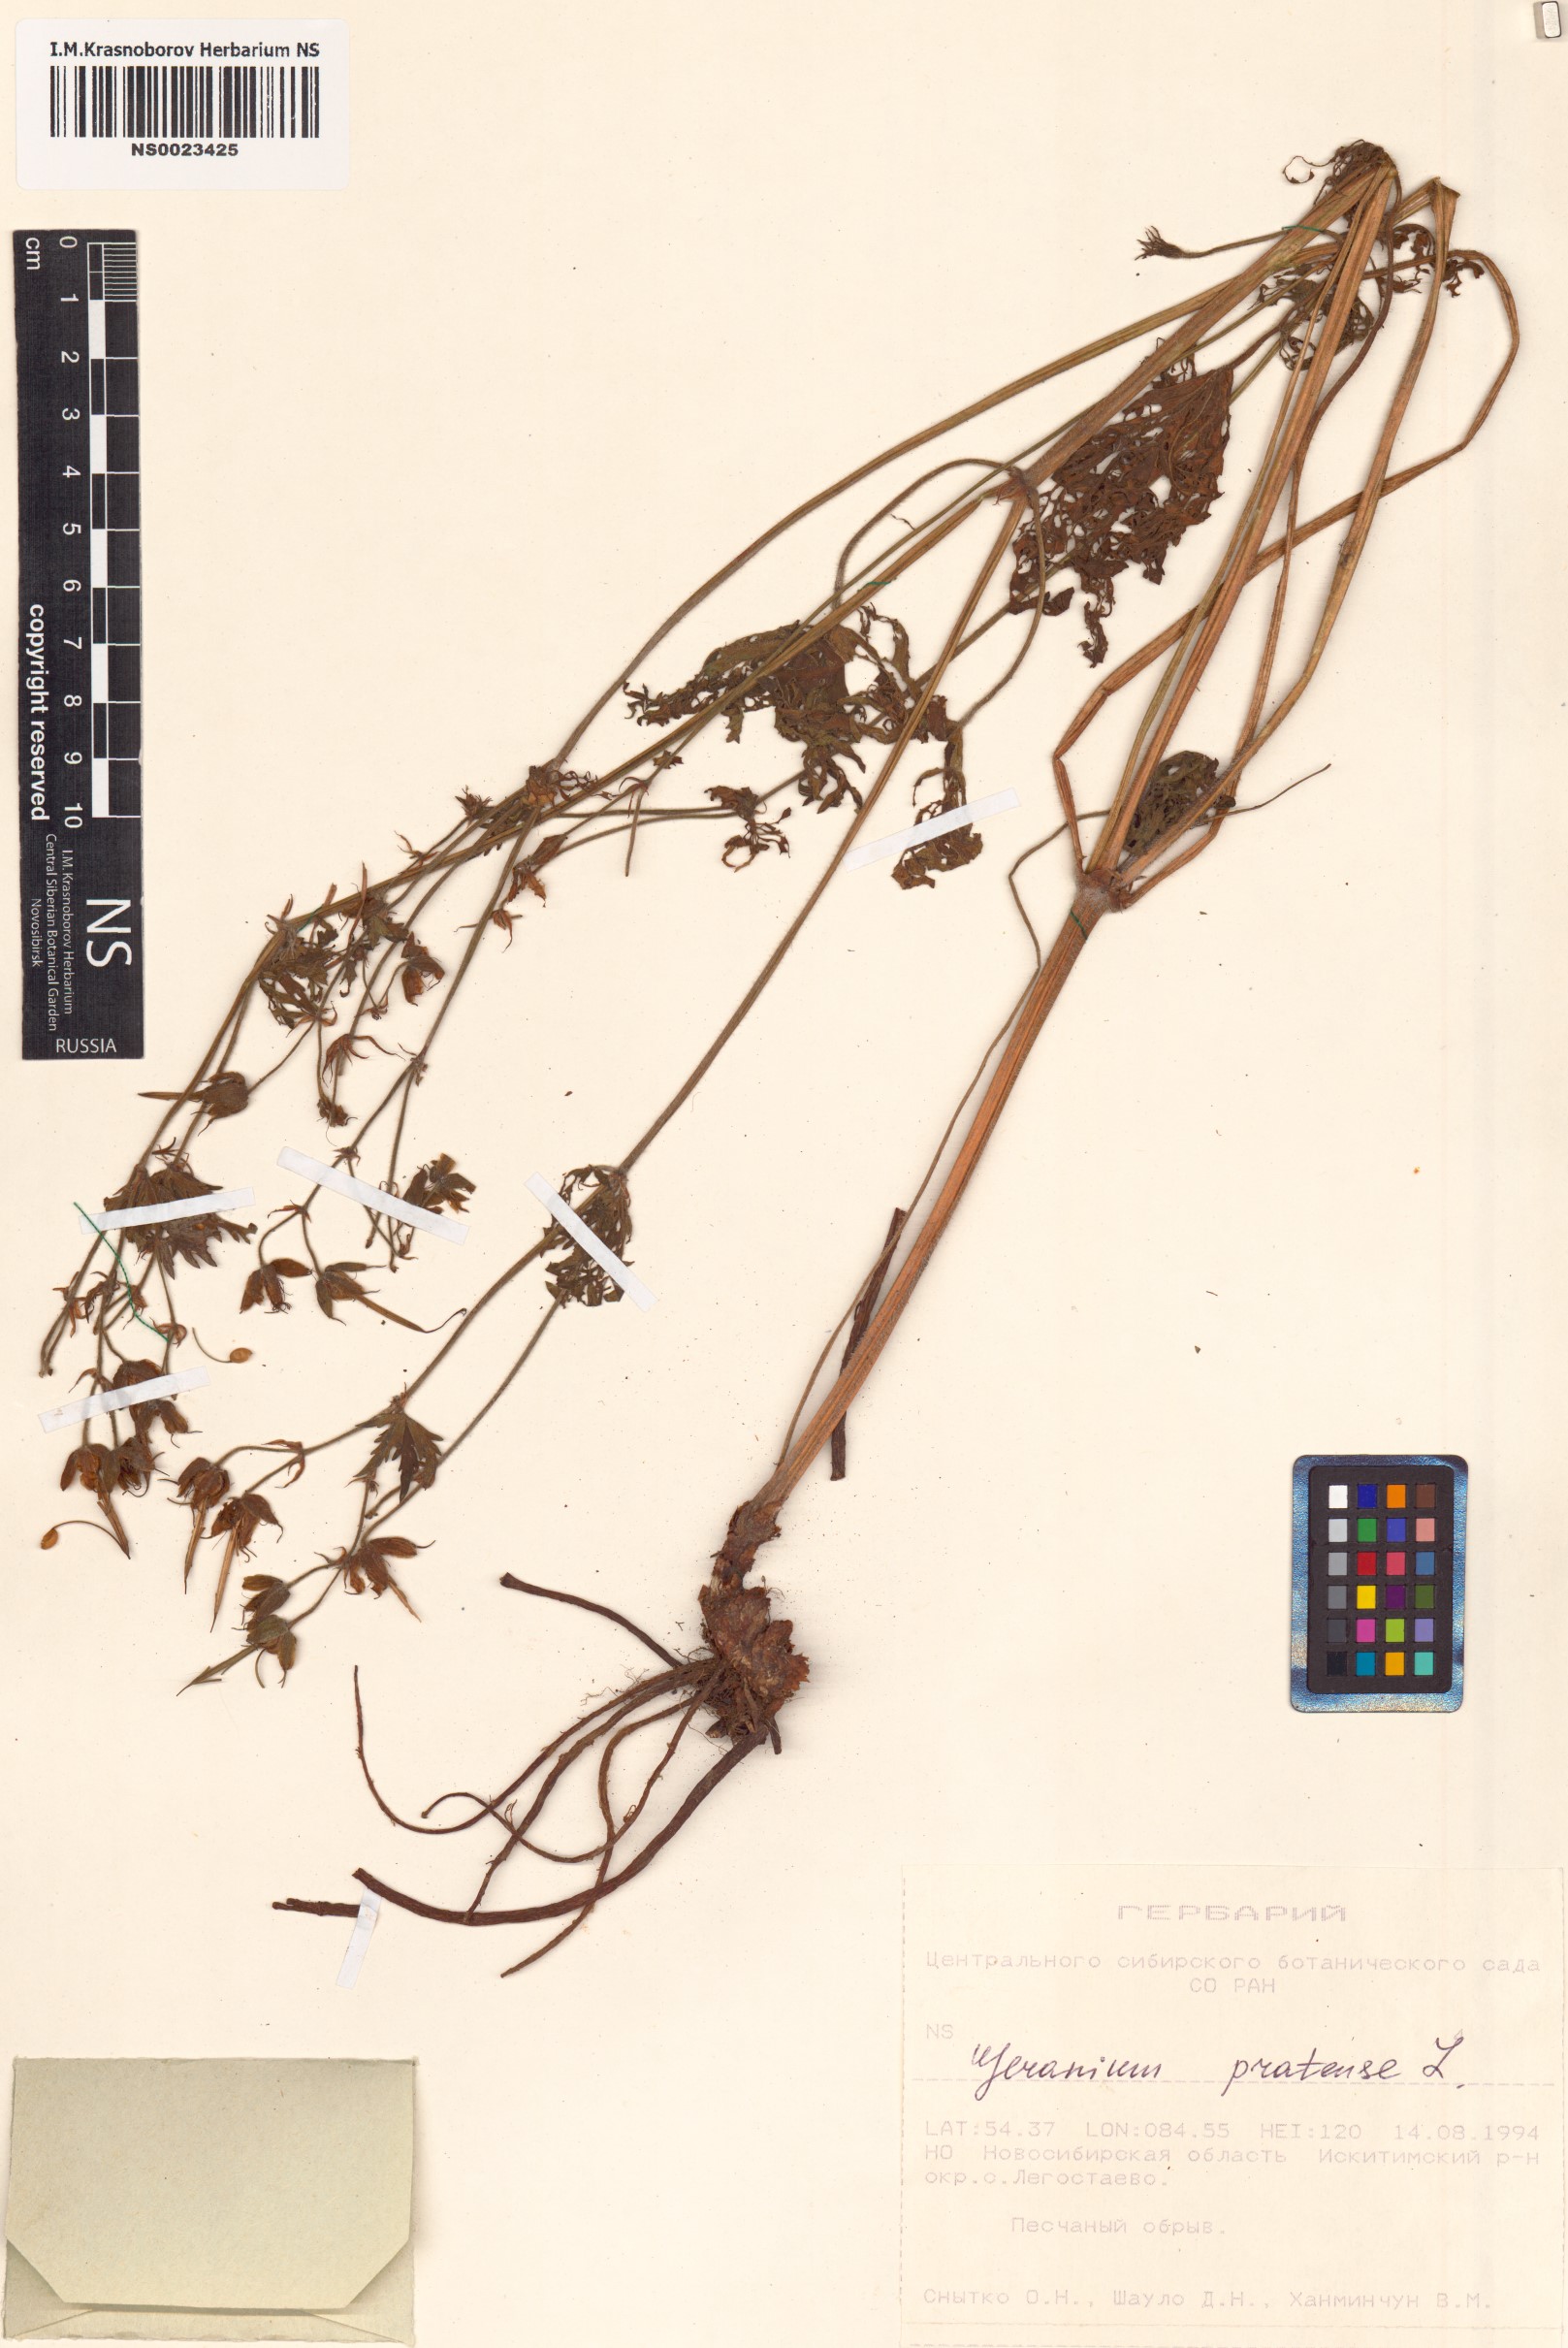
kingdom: Plantae
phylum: Tracheophyta
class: Magnoliopsida
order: Geraniales
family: Geraniaceae
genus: Geranium
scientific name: Geranium pratense
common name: Meadow crane's-bill
